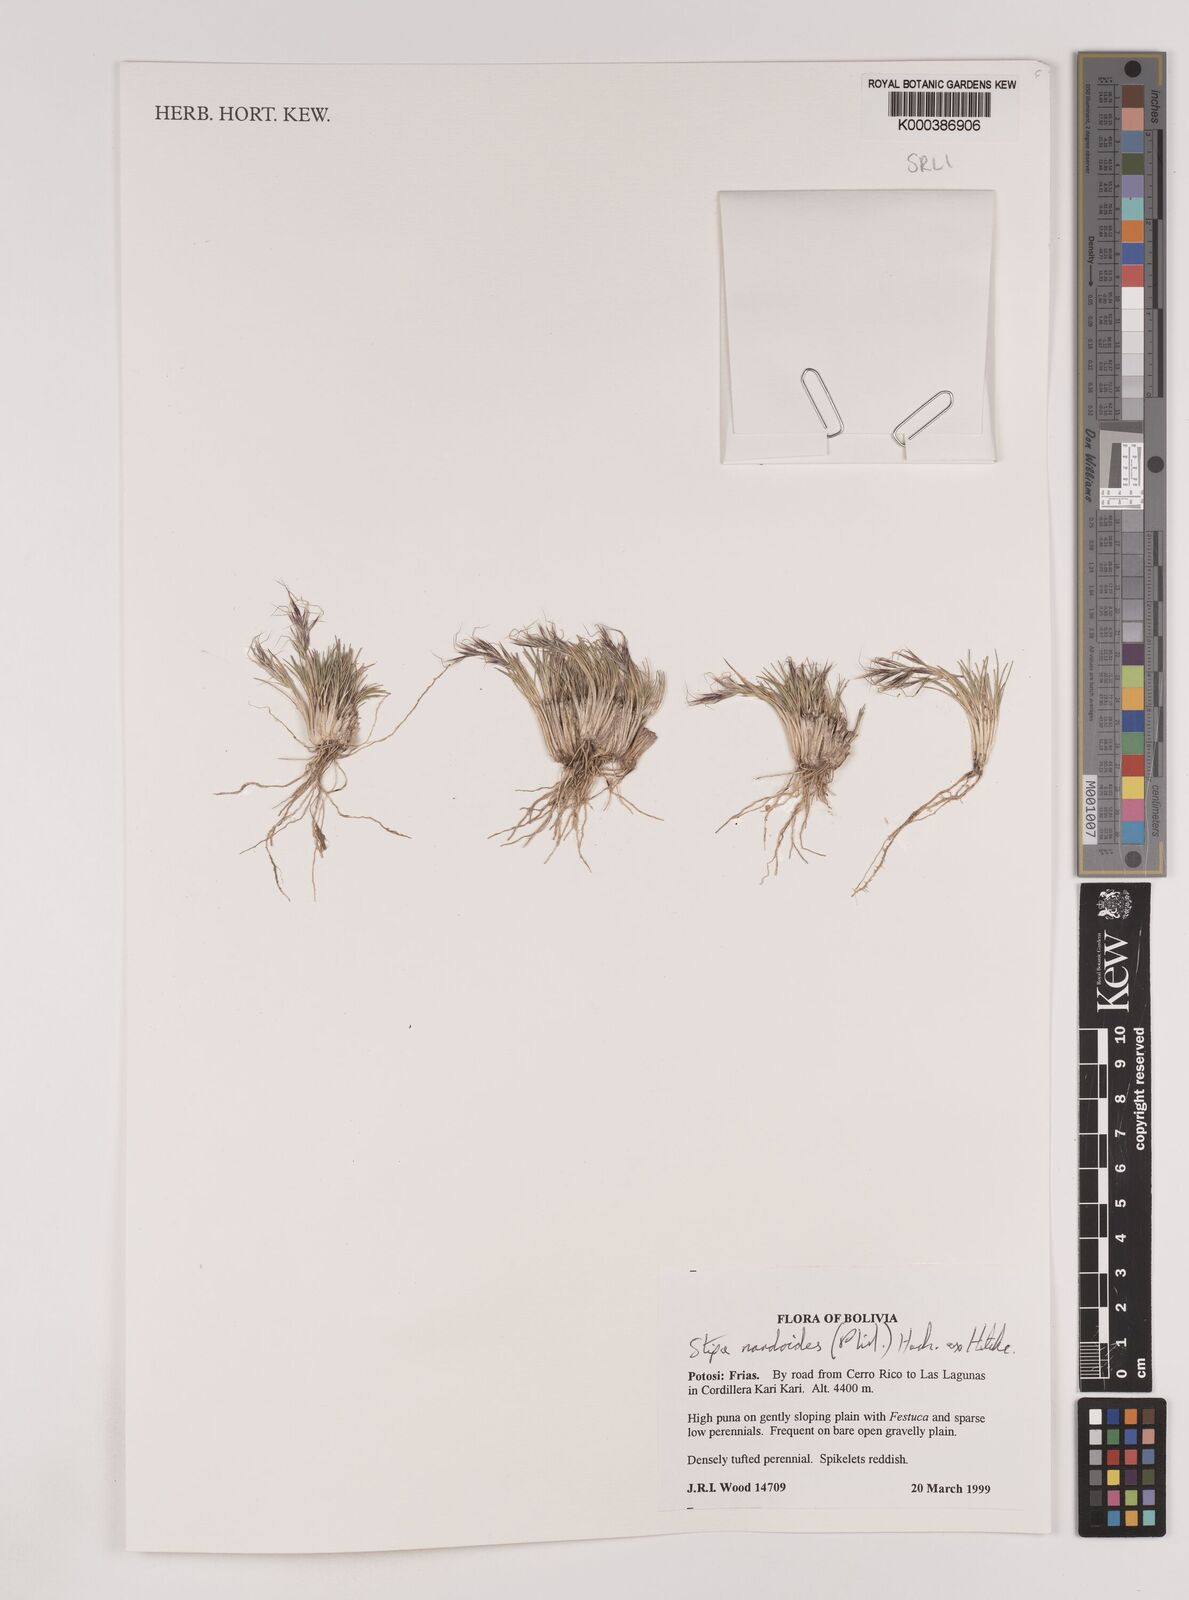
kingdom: Plantae
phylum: Tracheophyta
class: Liliopsida
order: Poales
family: Poaceae
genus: Nassella
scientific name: Nassella nardoides
